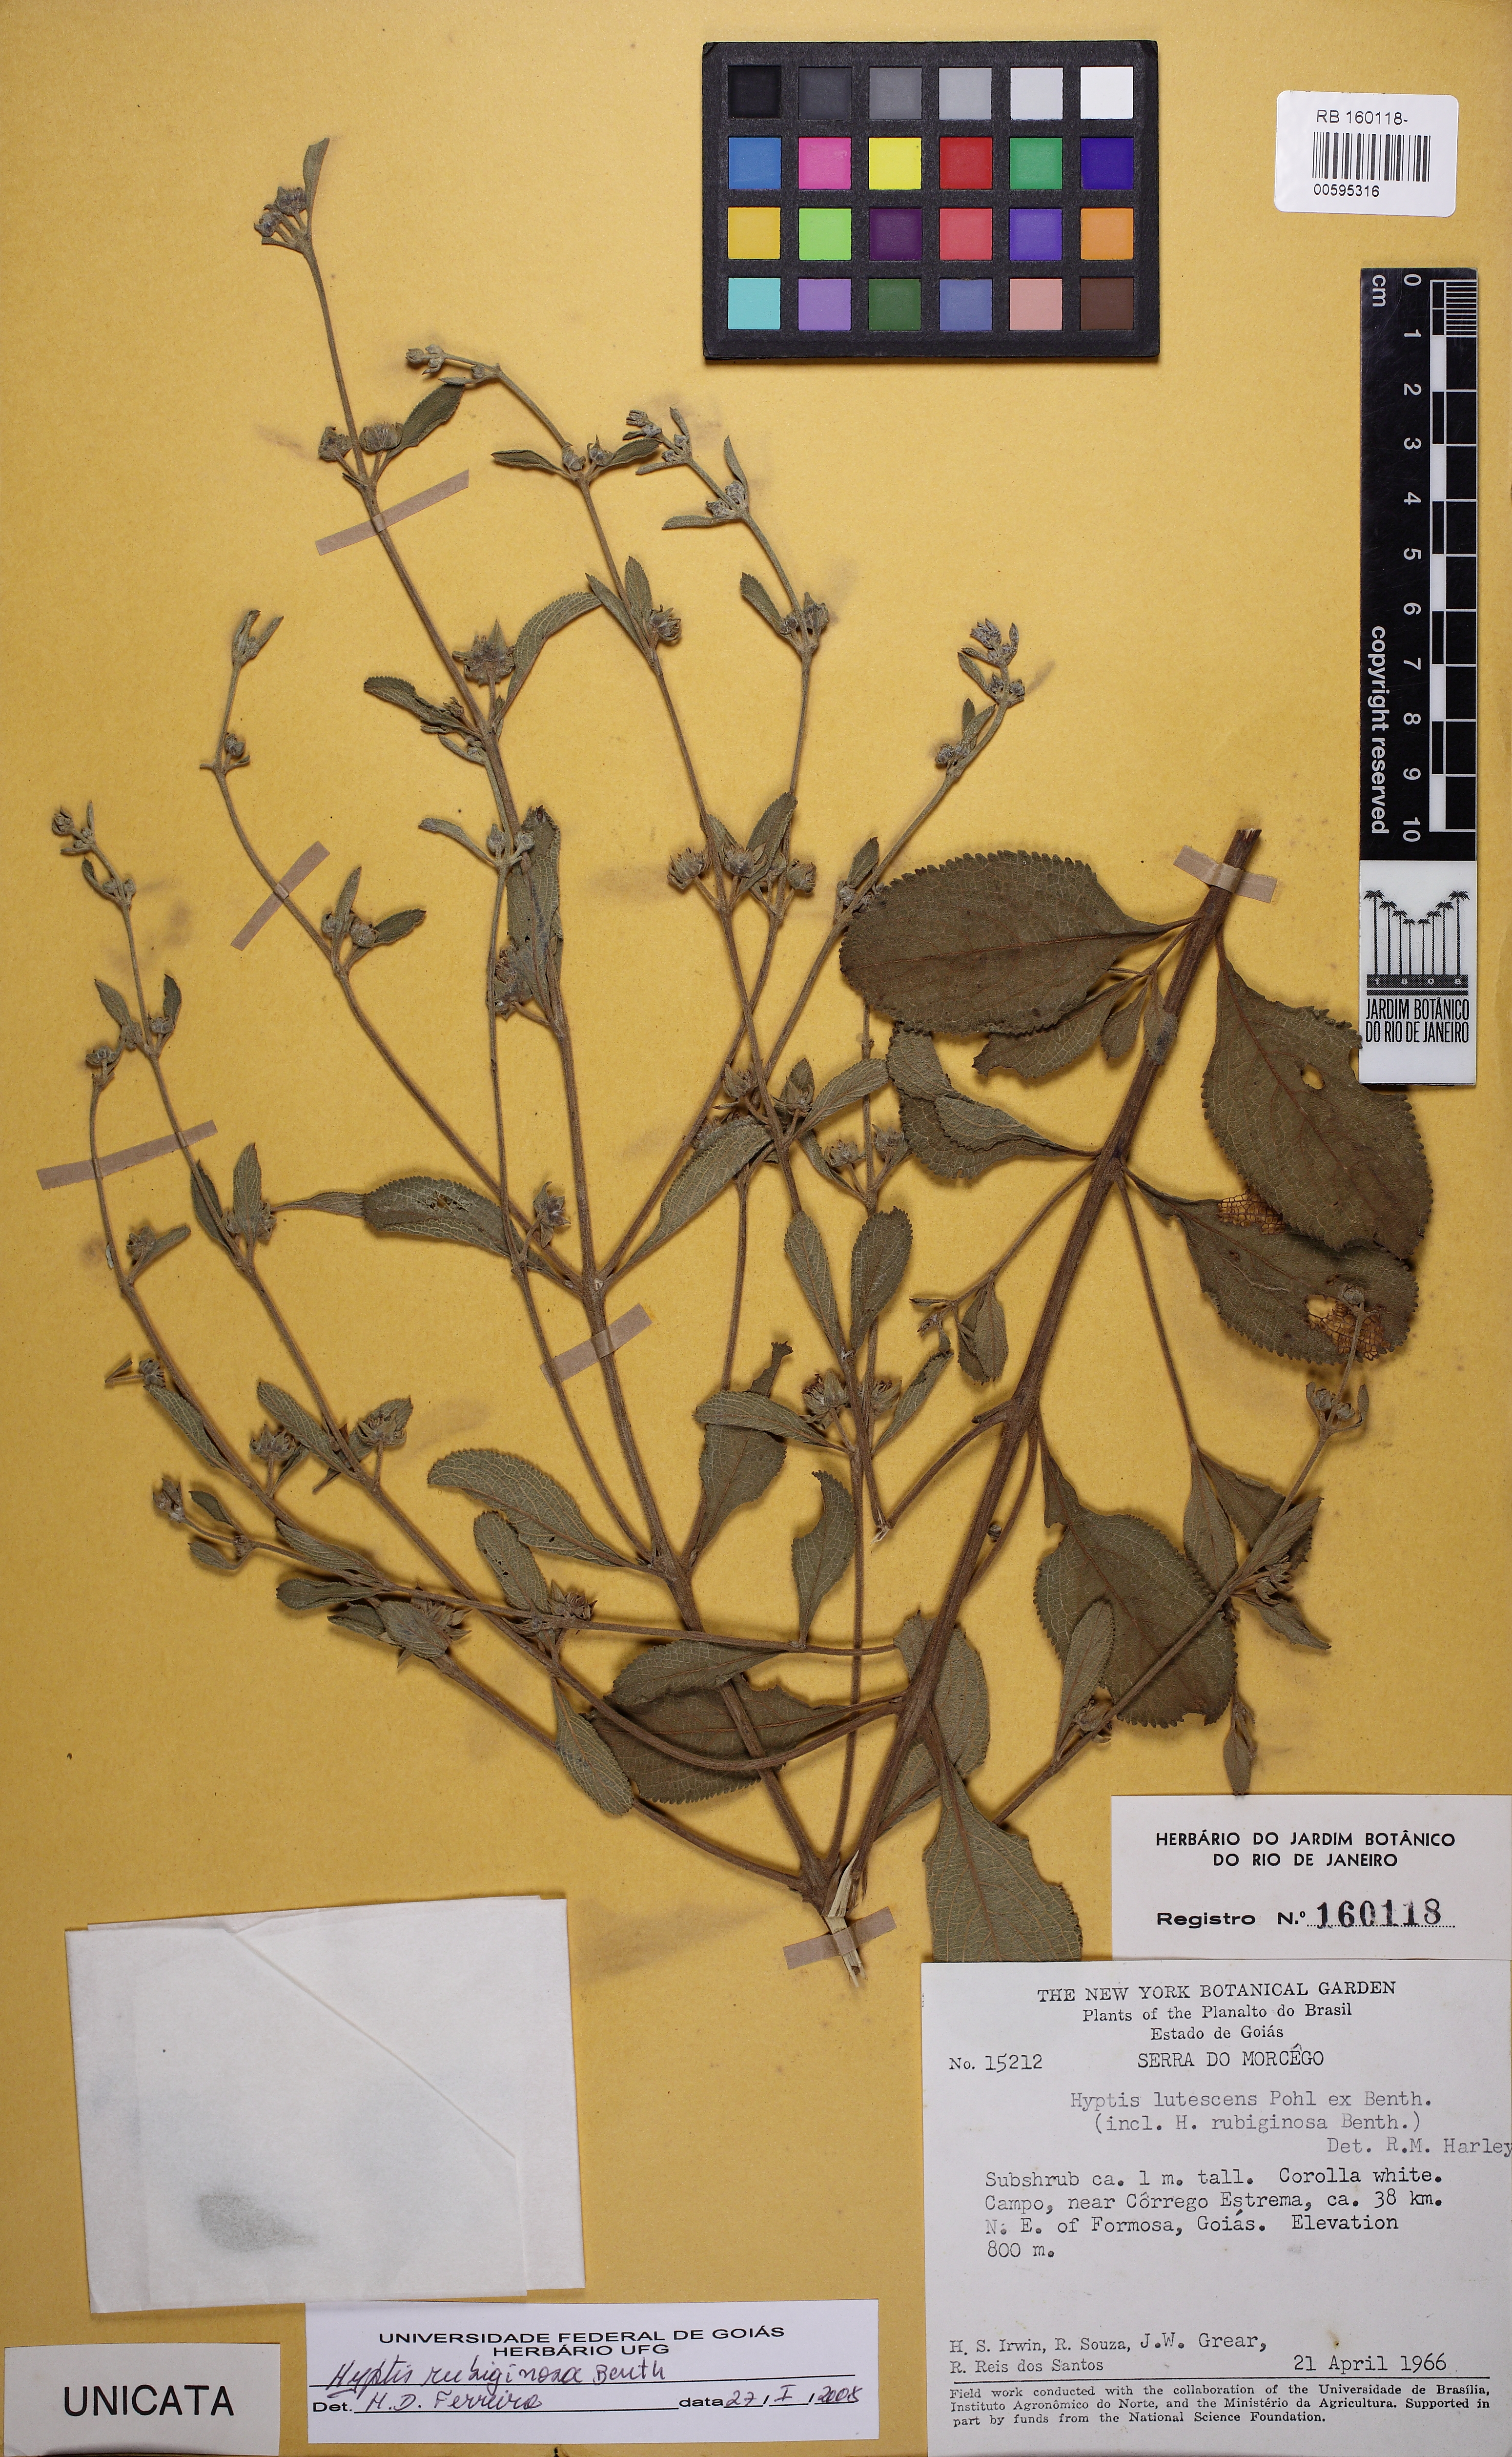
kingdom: Plantae
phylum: Tracheophyta
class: Magnoliopsida
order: Lamiales
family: Lamiaceae
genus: Hyptis
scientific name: Hyptis rubiginosa
